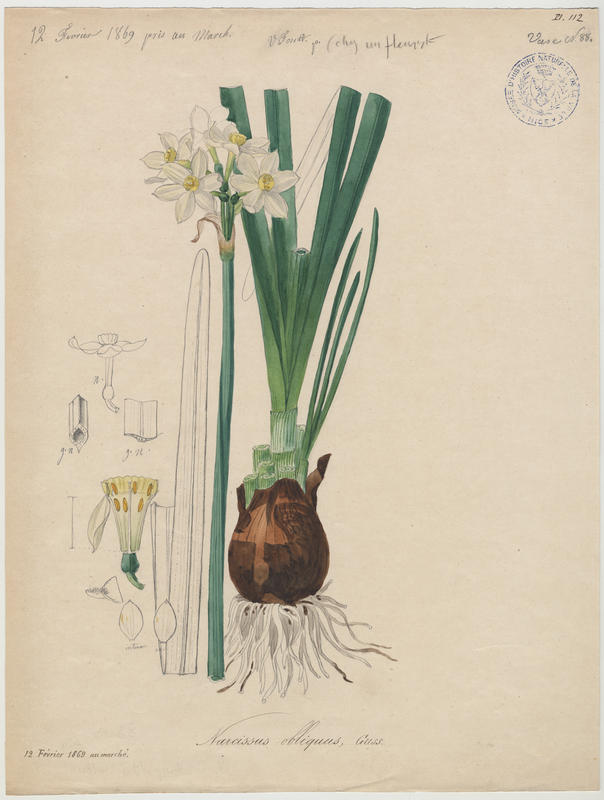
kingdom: Plantae
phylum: Tracheophyta
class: Liliopsida
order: Asparagales
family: Amaryllidaceae
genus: Narcissus
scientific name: Narcissus tazetta
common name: Bunch-flowered daffodil
